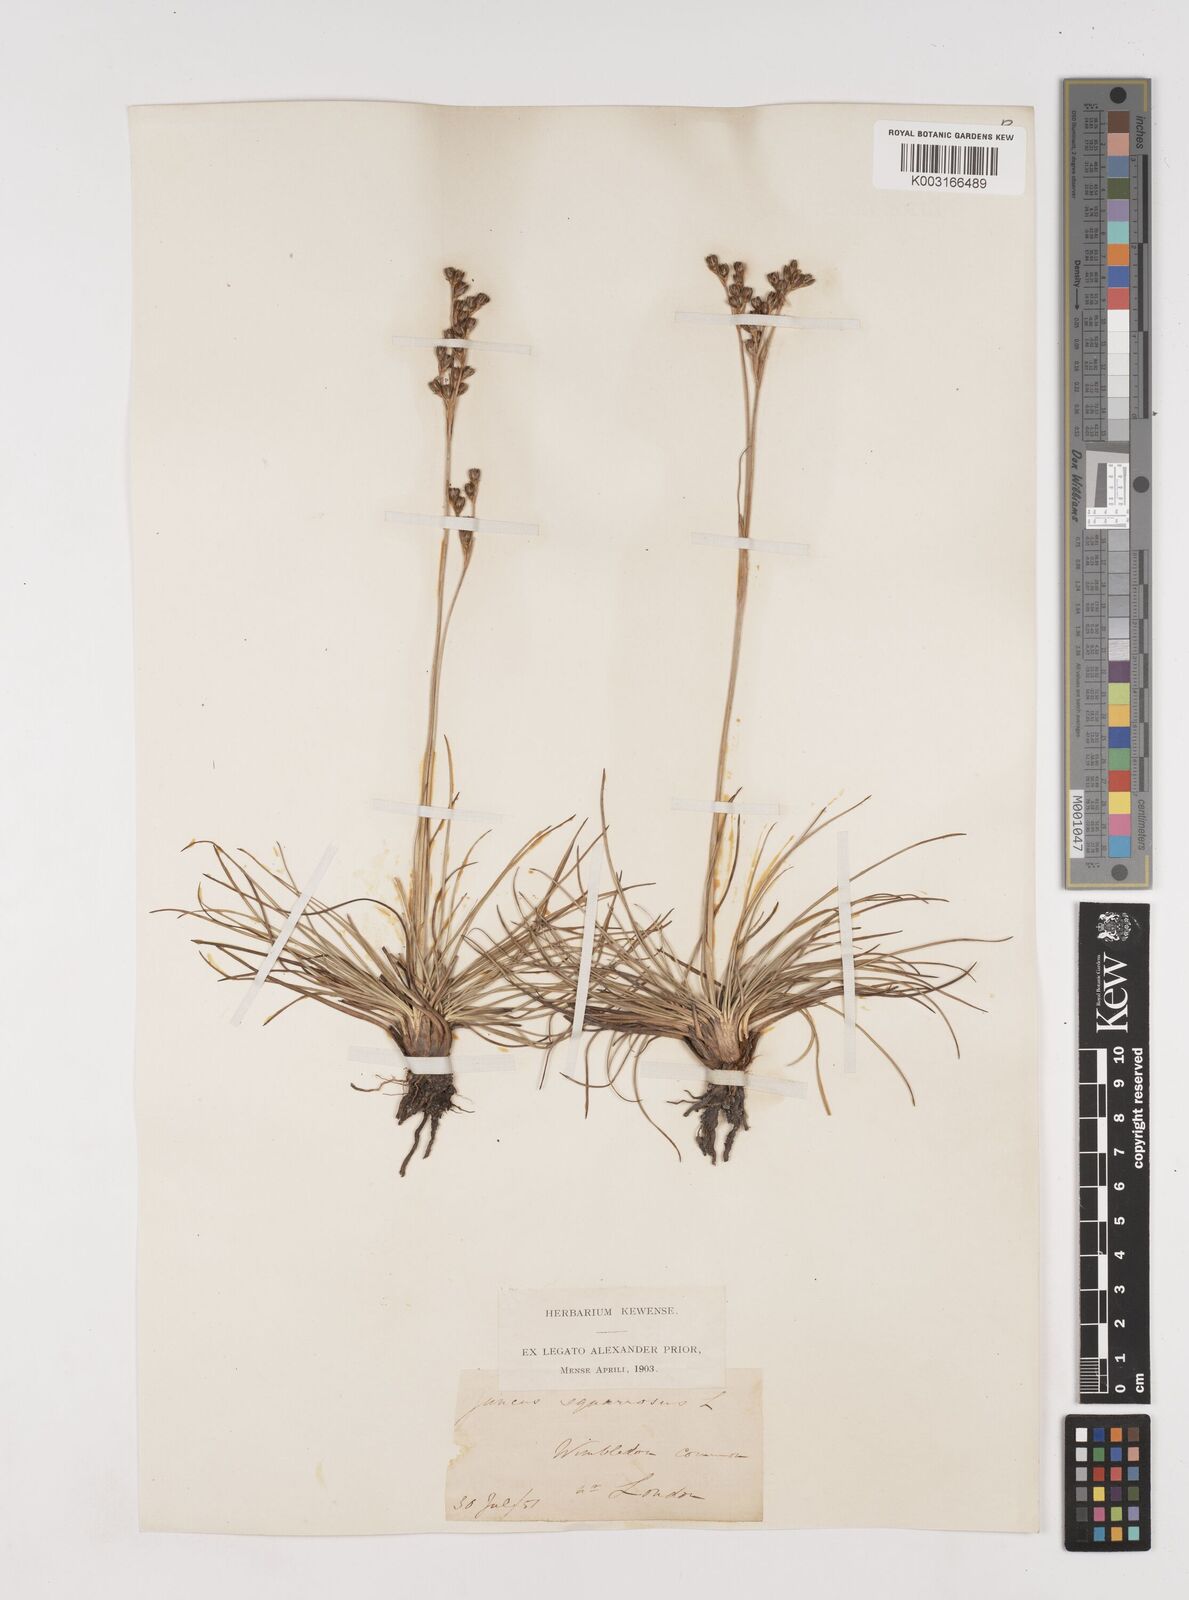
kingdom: Plantae
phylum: Tracheophyta
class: Liliopsida
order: Poales
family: Juncaceae
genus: Juncus
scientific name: Juncus squarrosus
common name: Heath rush
